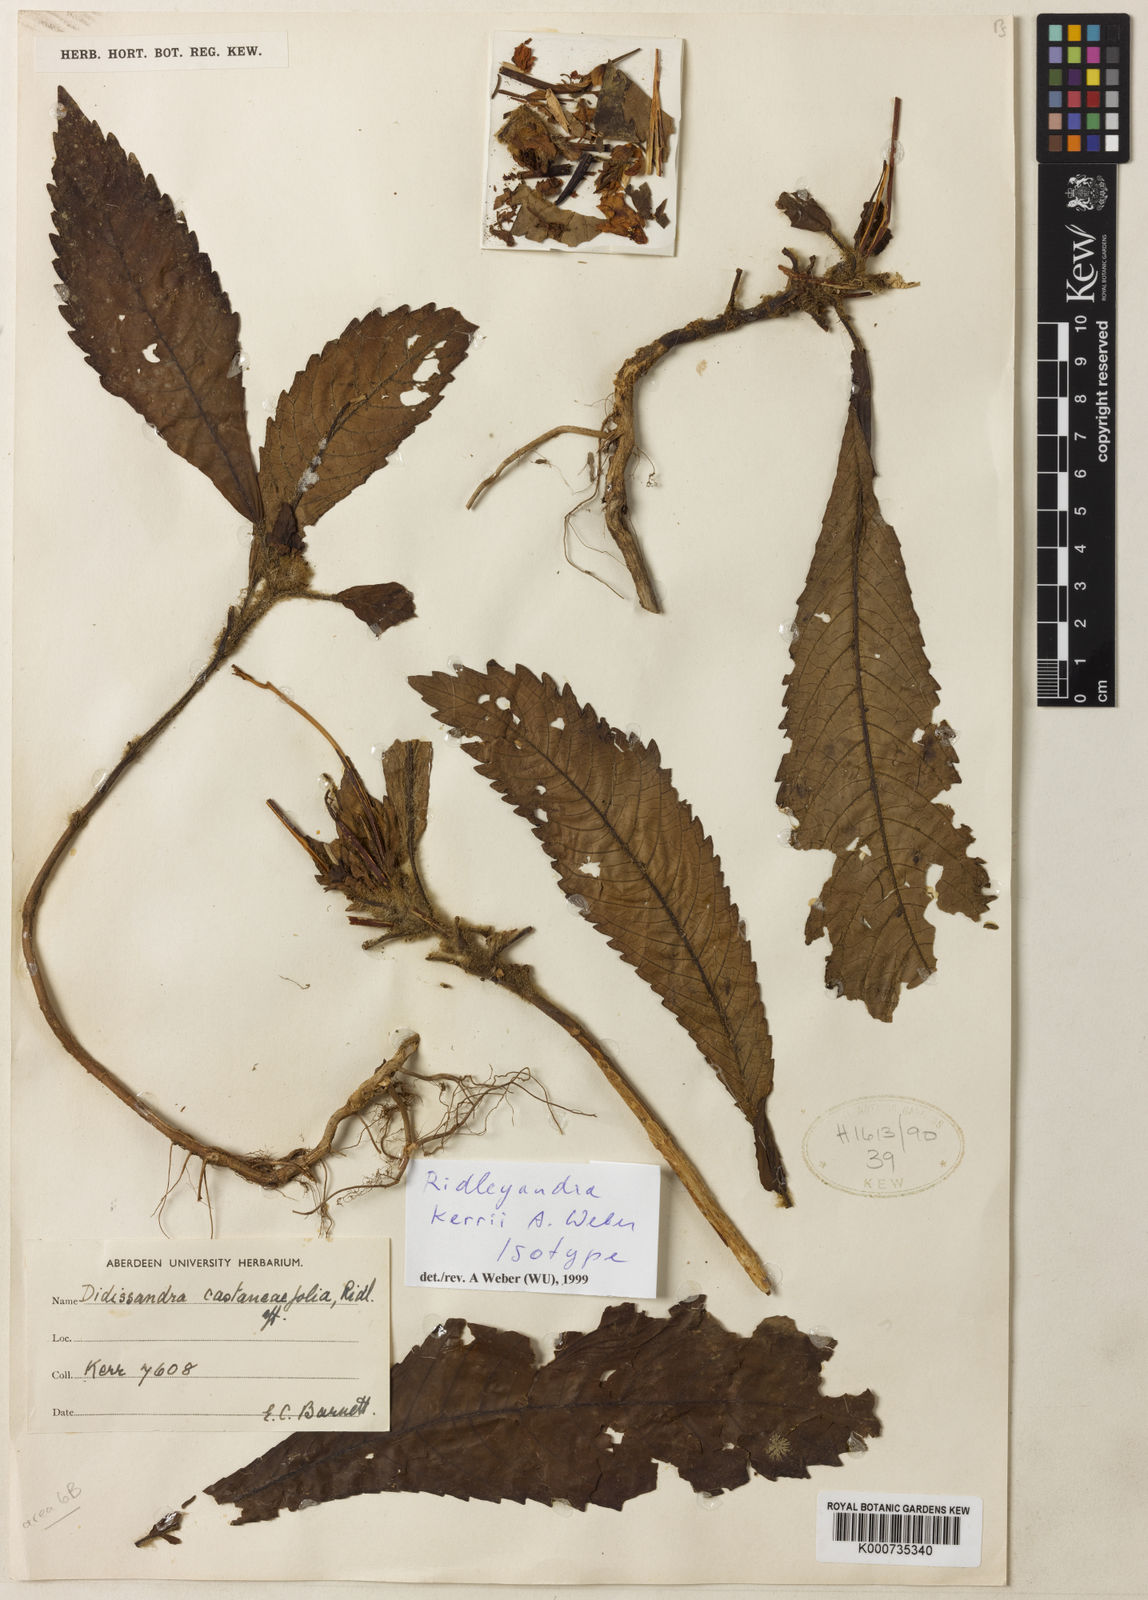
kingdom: Plantae
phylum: Tracheophyta
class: Magnoliopsida
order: Lamiales
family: Gesneriaceae
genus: Ridleyandra
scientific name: Ridleyandra kerrii
